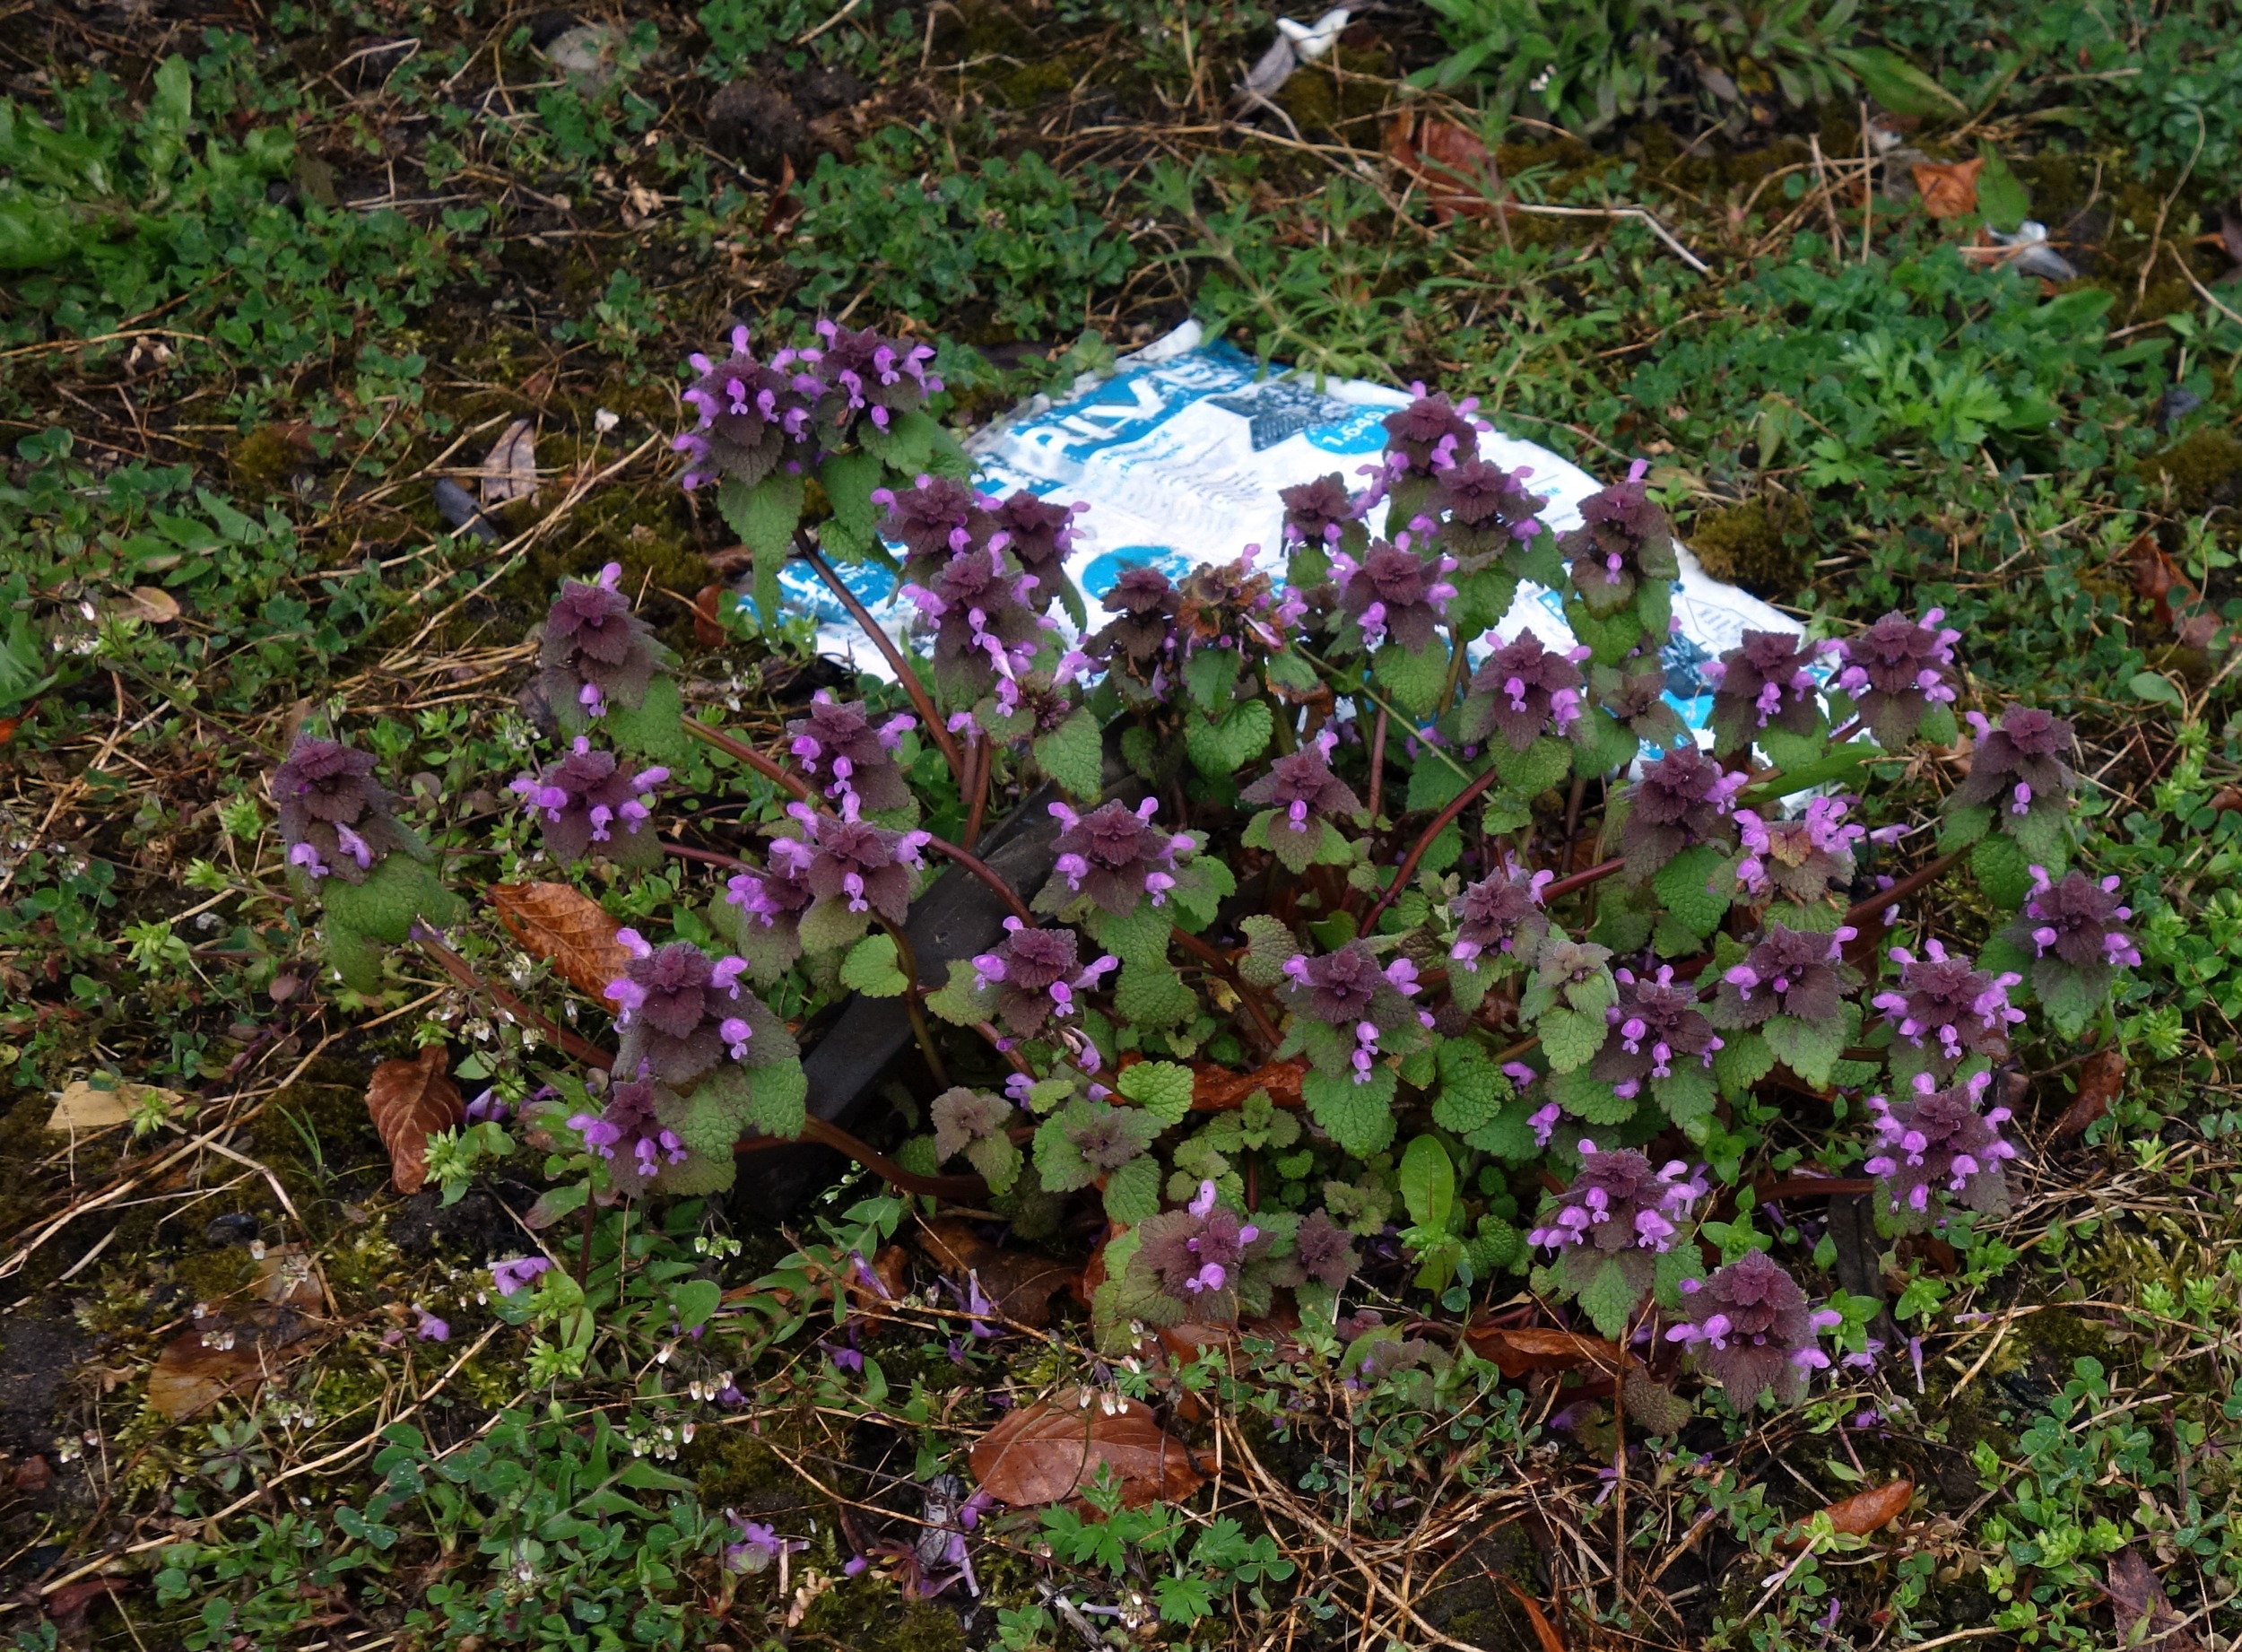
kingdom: Plantae
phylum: Tracheophyta
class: Magnoliopsida
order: Lamiales
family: Lamiaceae
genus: Lamium
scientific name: Lamium purpureum
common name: Rød tvetand
